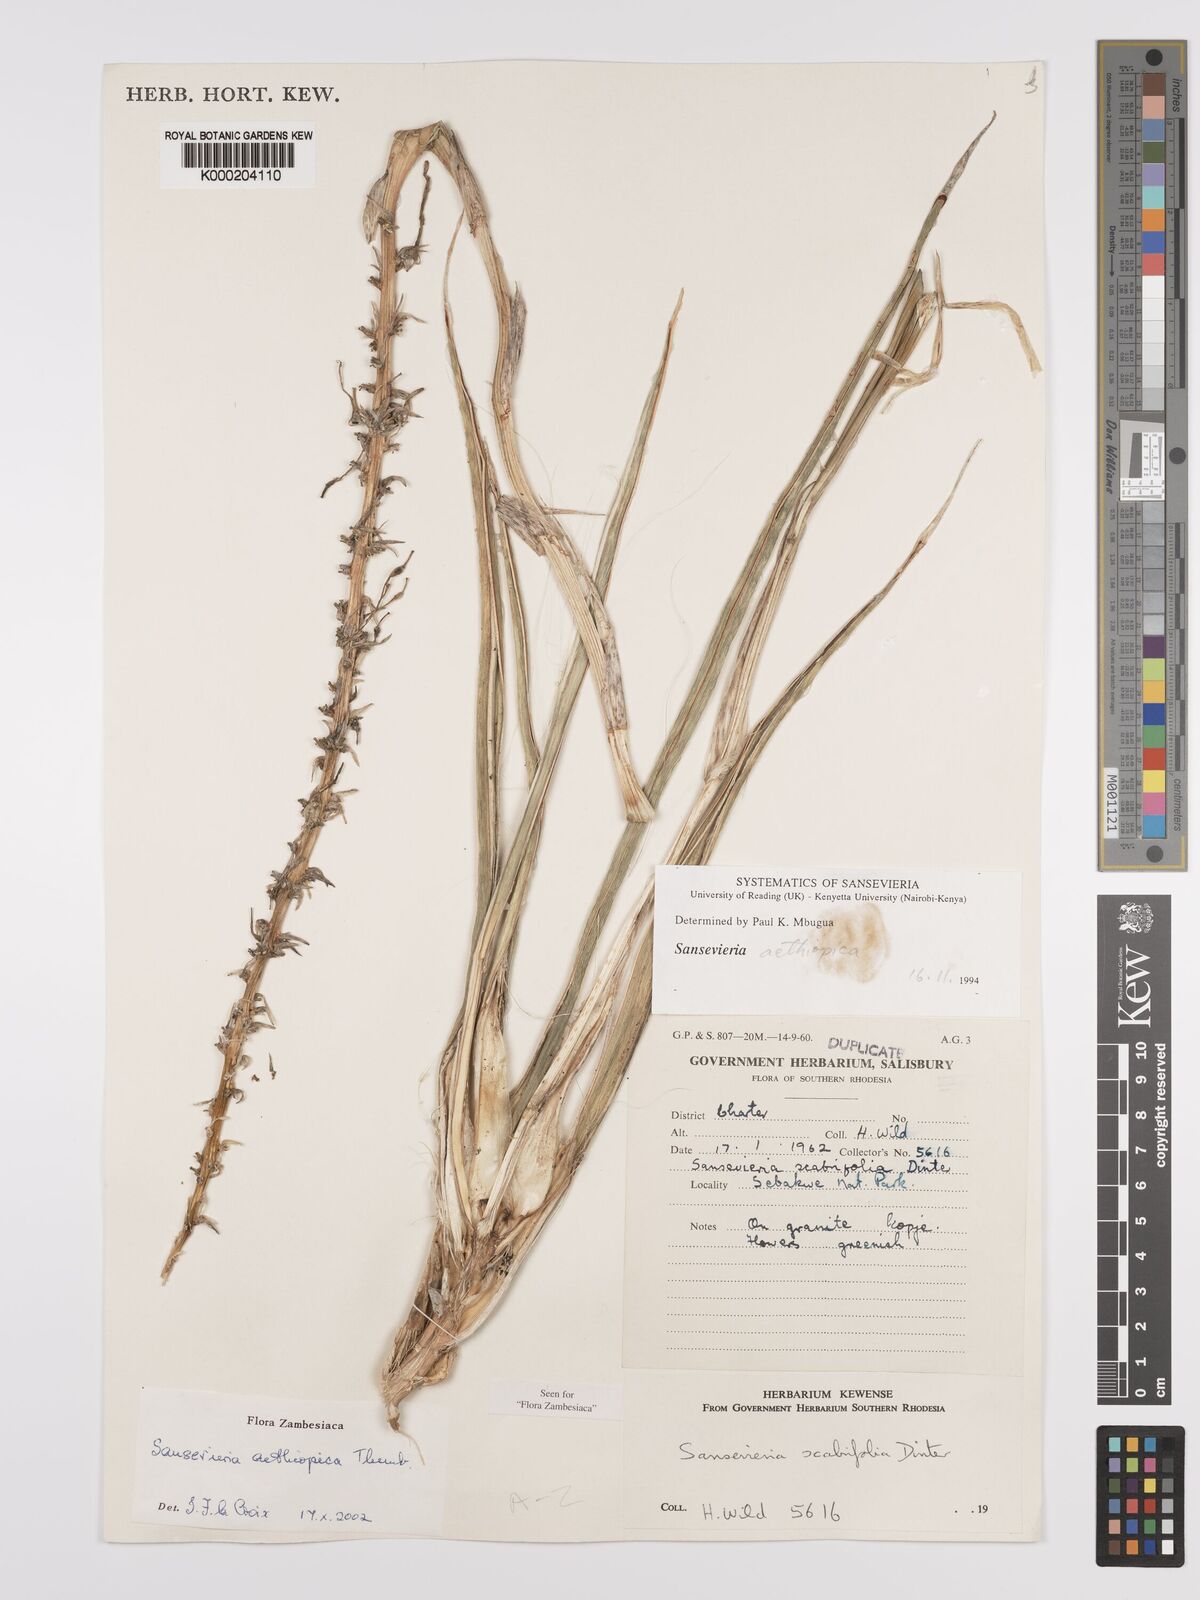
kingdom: Plantae
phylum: Tracheophyta
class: Liliopsida
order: Asparagales
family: Asparagaceae
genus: Dracaena
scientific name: Dracaena aethiopica
